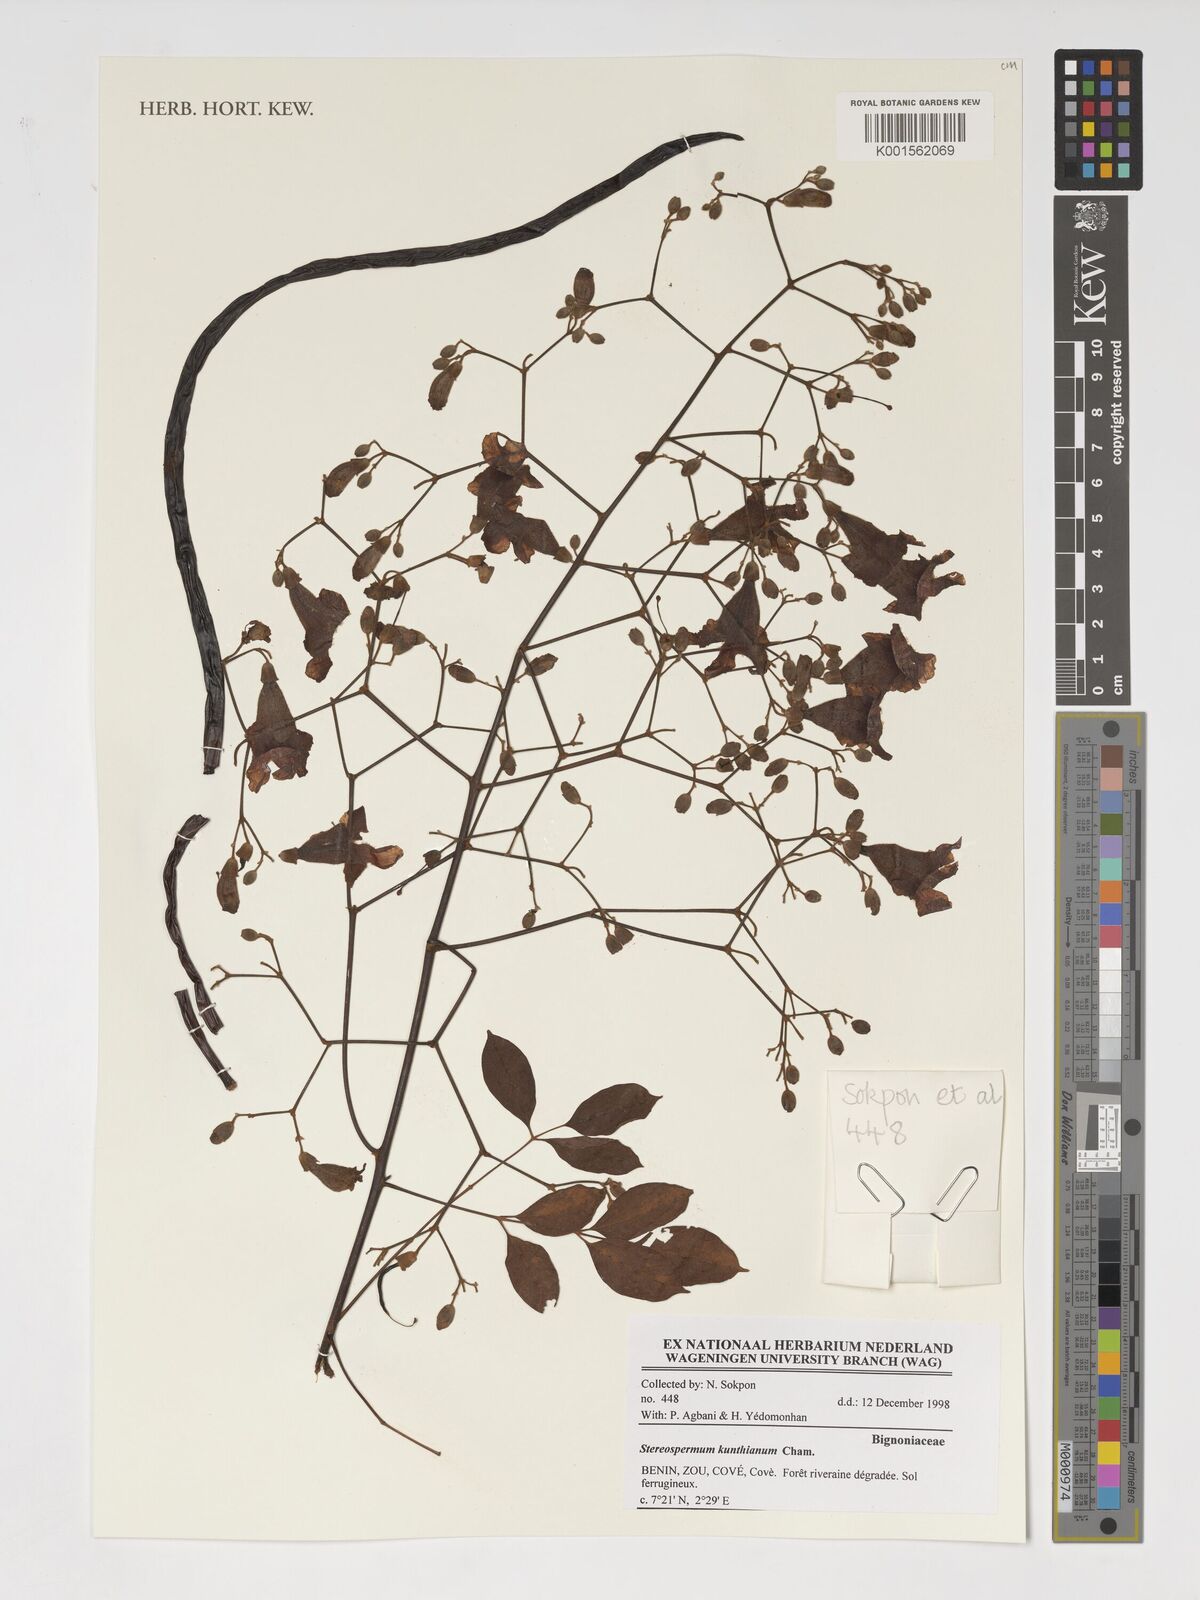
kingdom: Plantae
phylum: Tracheophyta
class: Magnoliopsida
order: Lamiales
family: Bignoniaceae
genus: Stereospermum
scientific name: Stereospermum kunthianum
